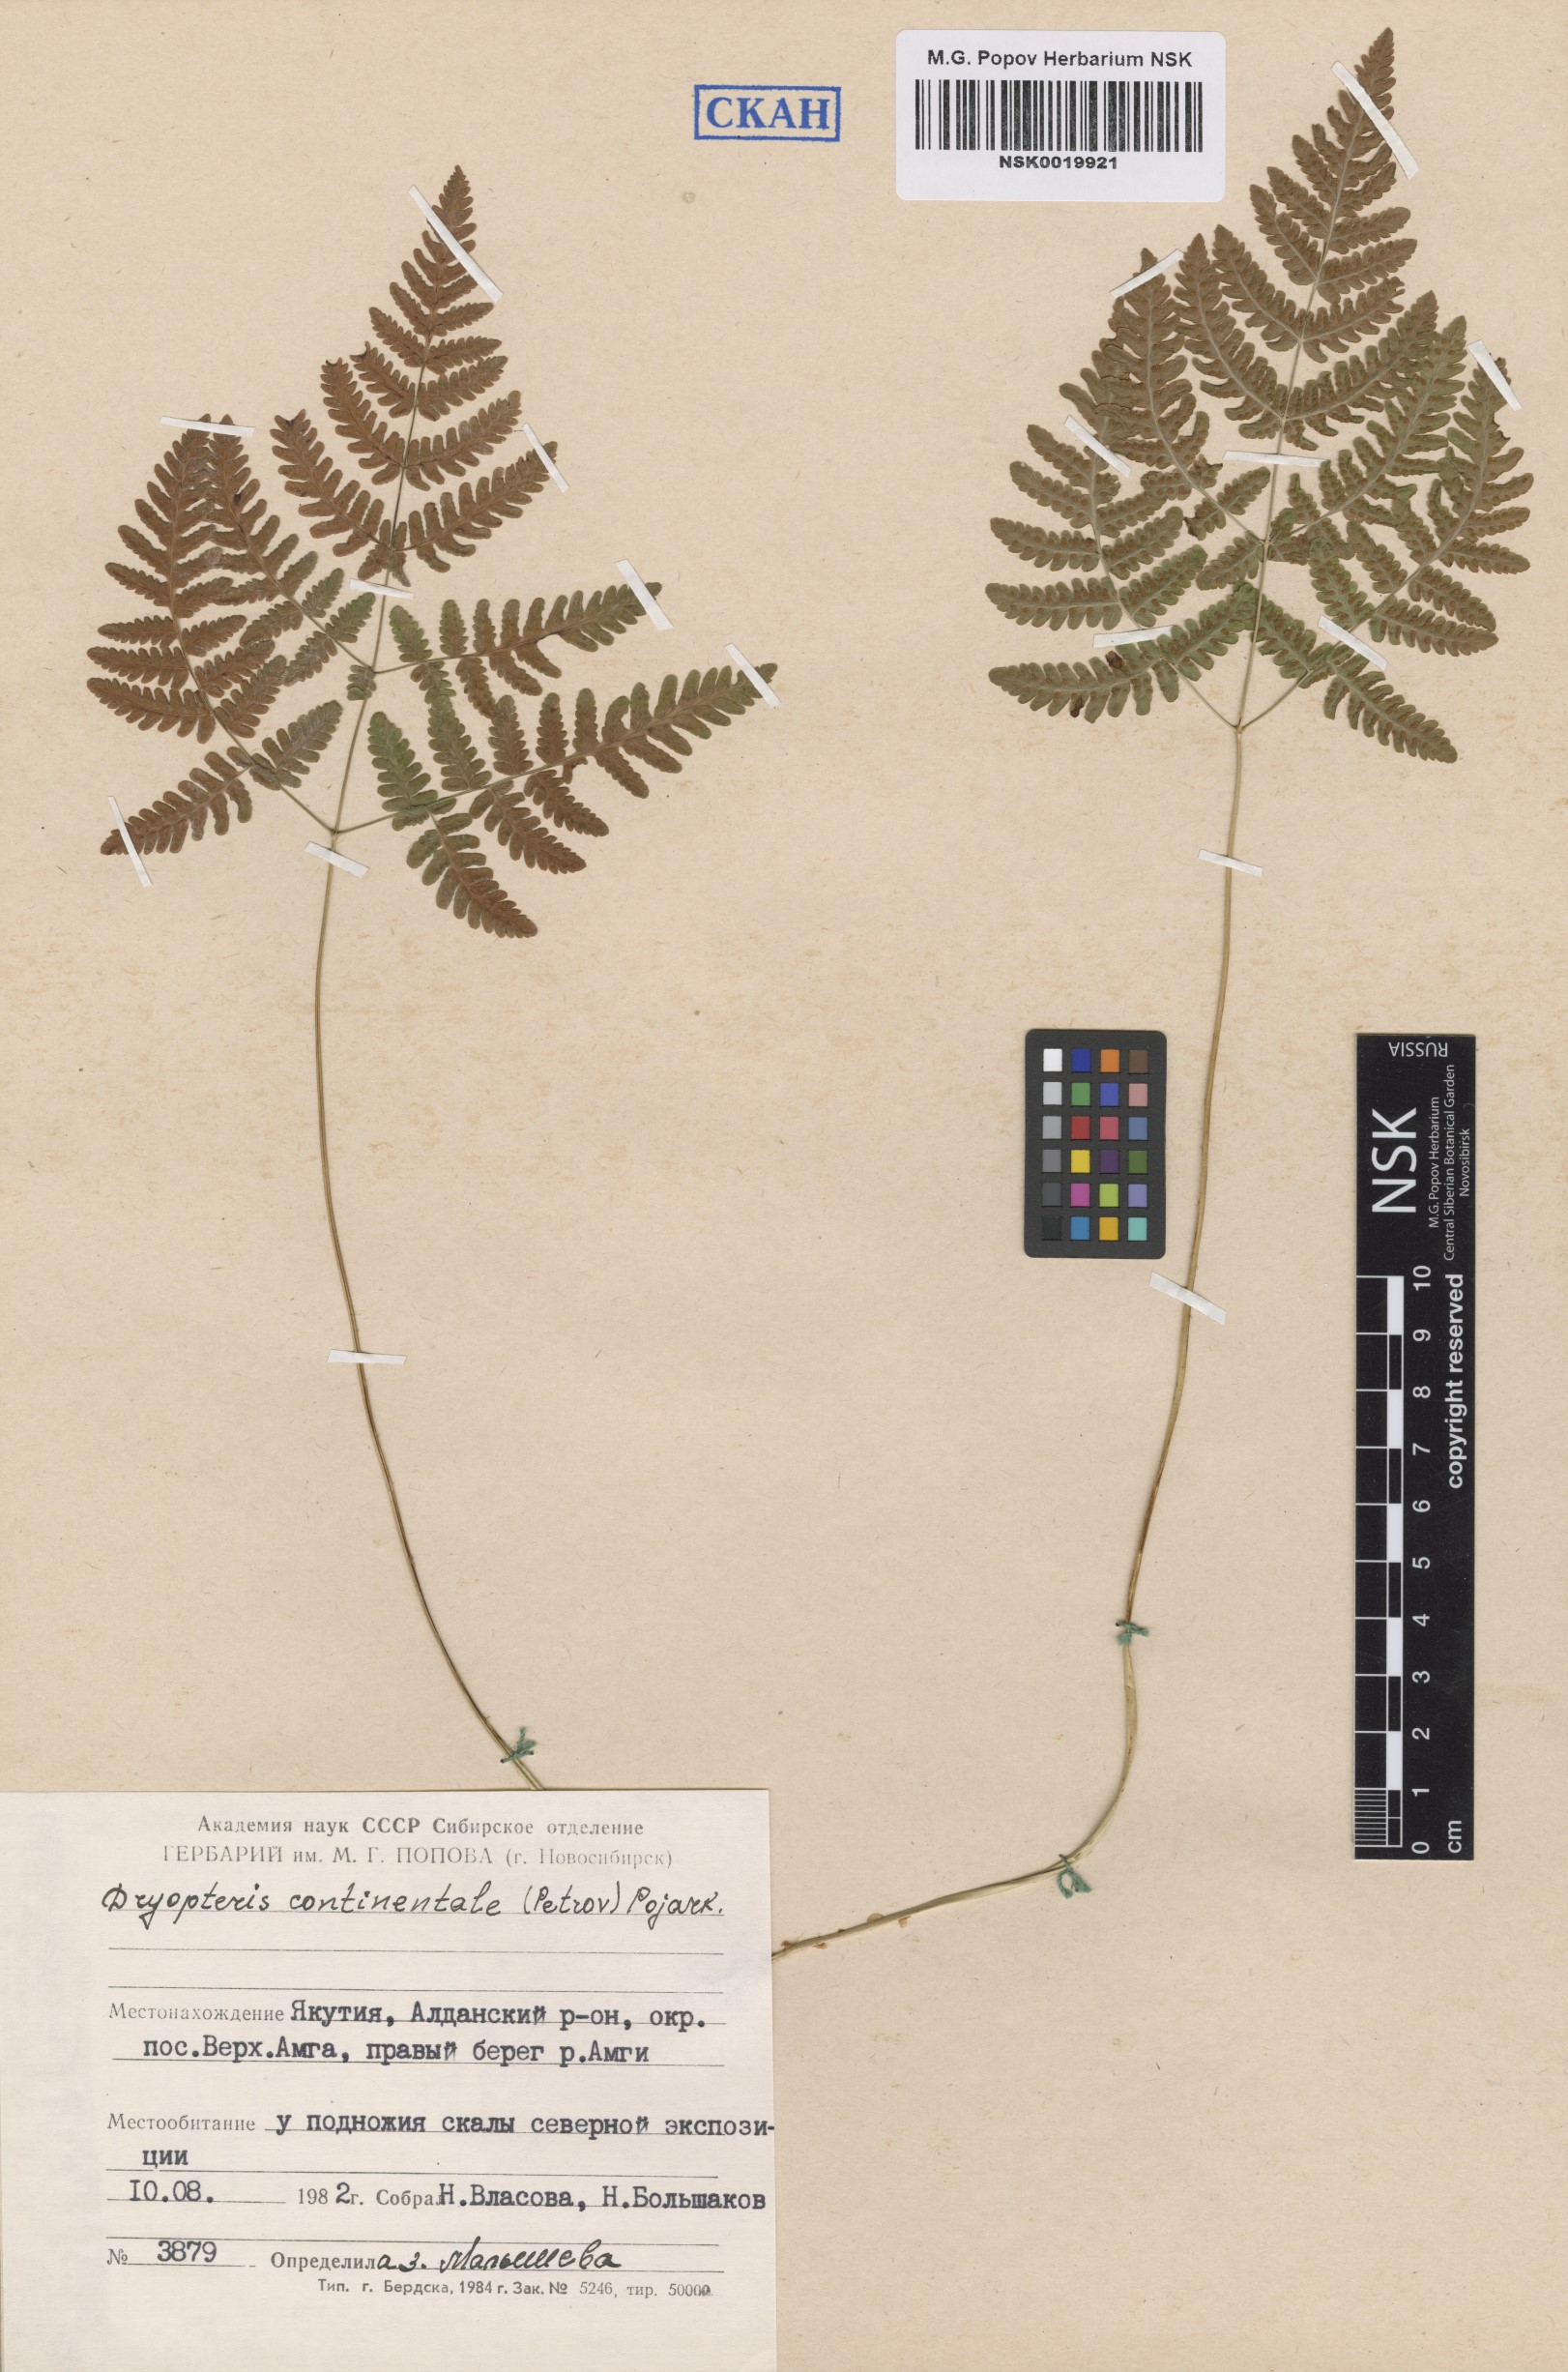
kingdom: Plantae
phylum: Tracheophyta
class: Polypodiopsida
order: Polypodiales
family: Cystopteridaceae
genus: Gymnocarpium
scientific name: Gymnocarpium continentale
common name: Asian oak fern
